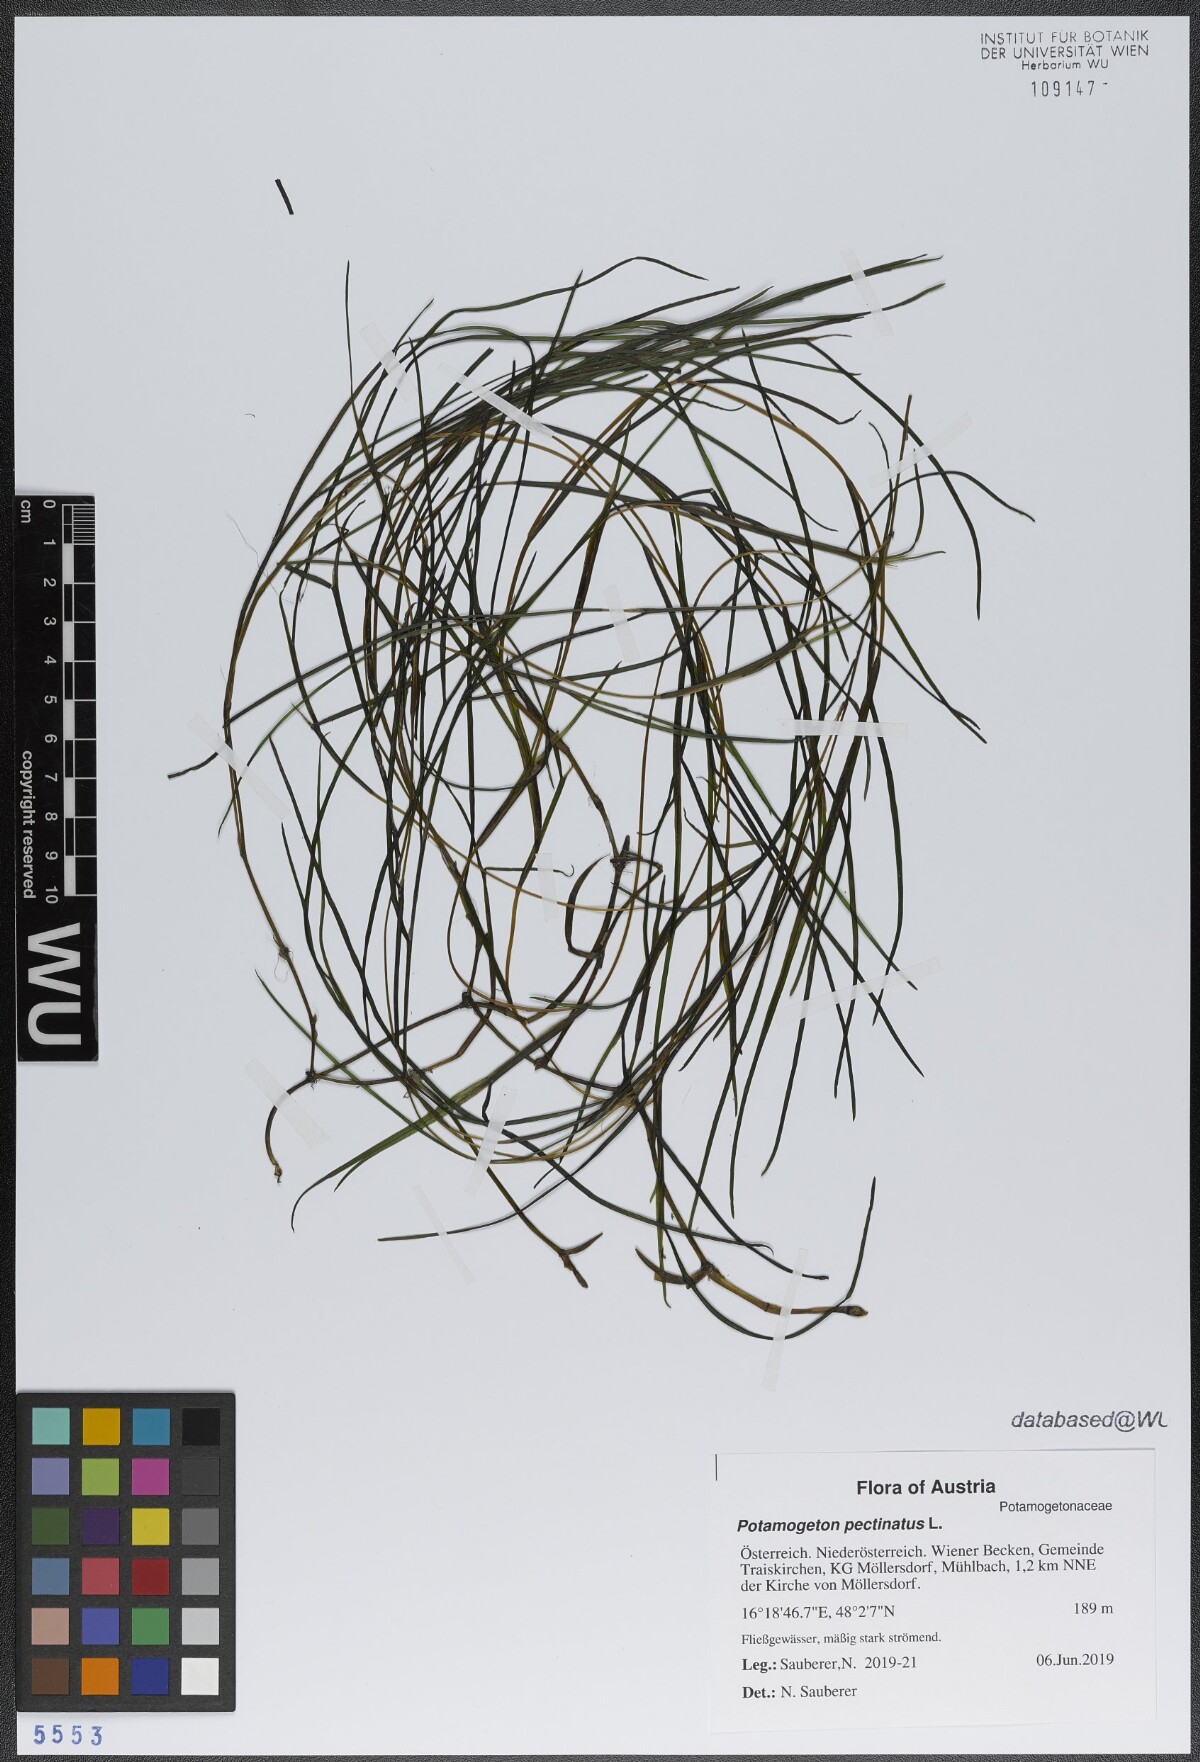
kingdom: Plantae
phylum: Tracheophyta
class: Liliopsida
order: Alismatales
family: Potamogetonaceae
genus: Stuckenia
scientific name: Stuckenia pectinata
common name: Sago pondweed
